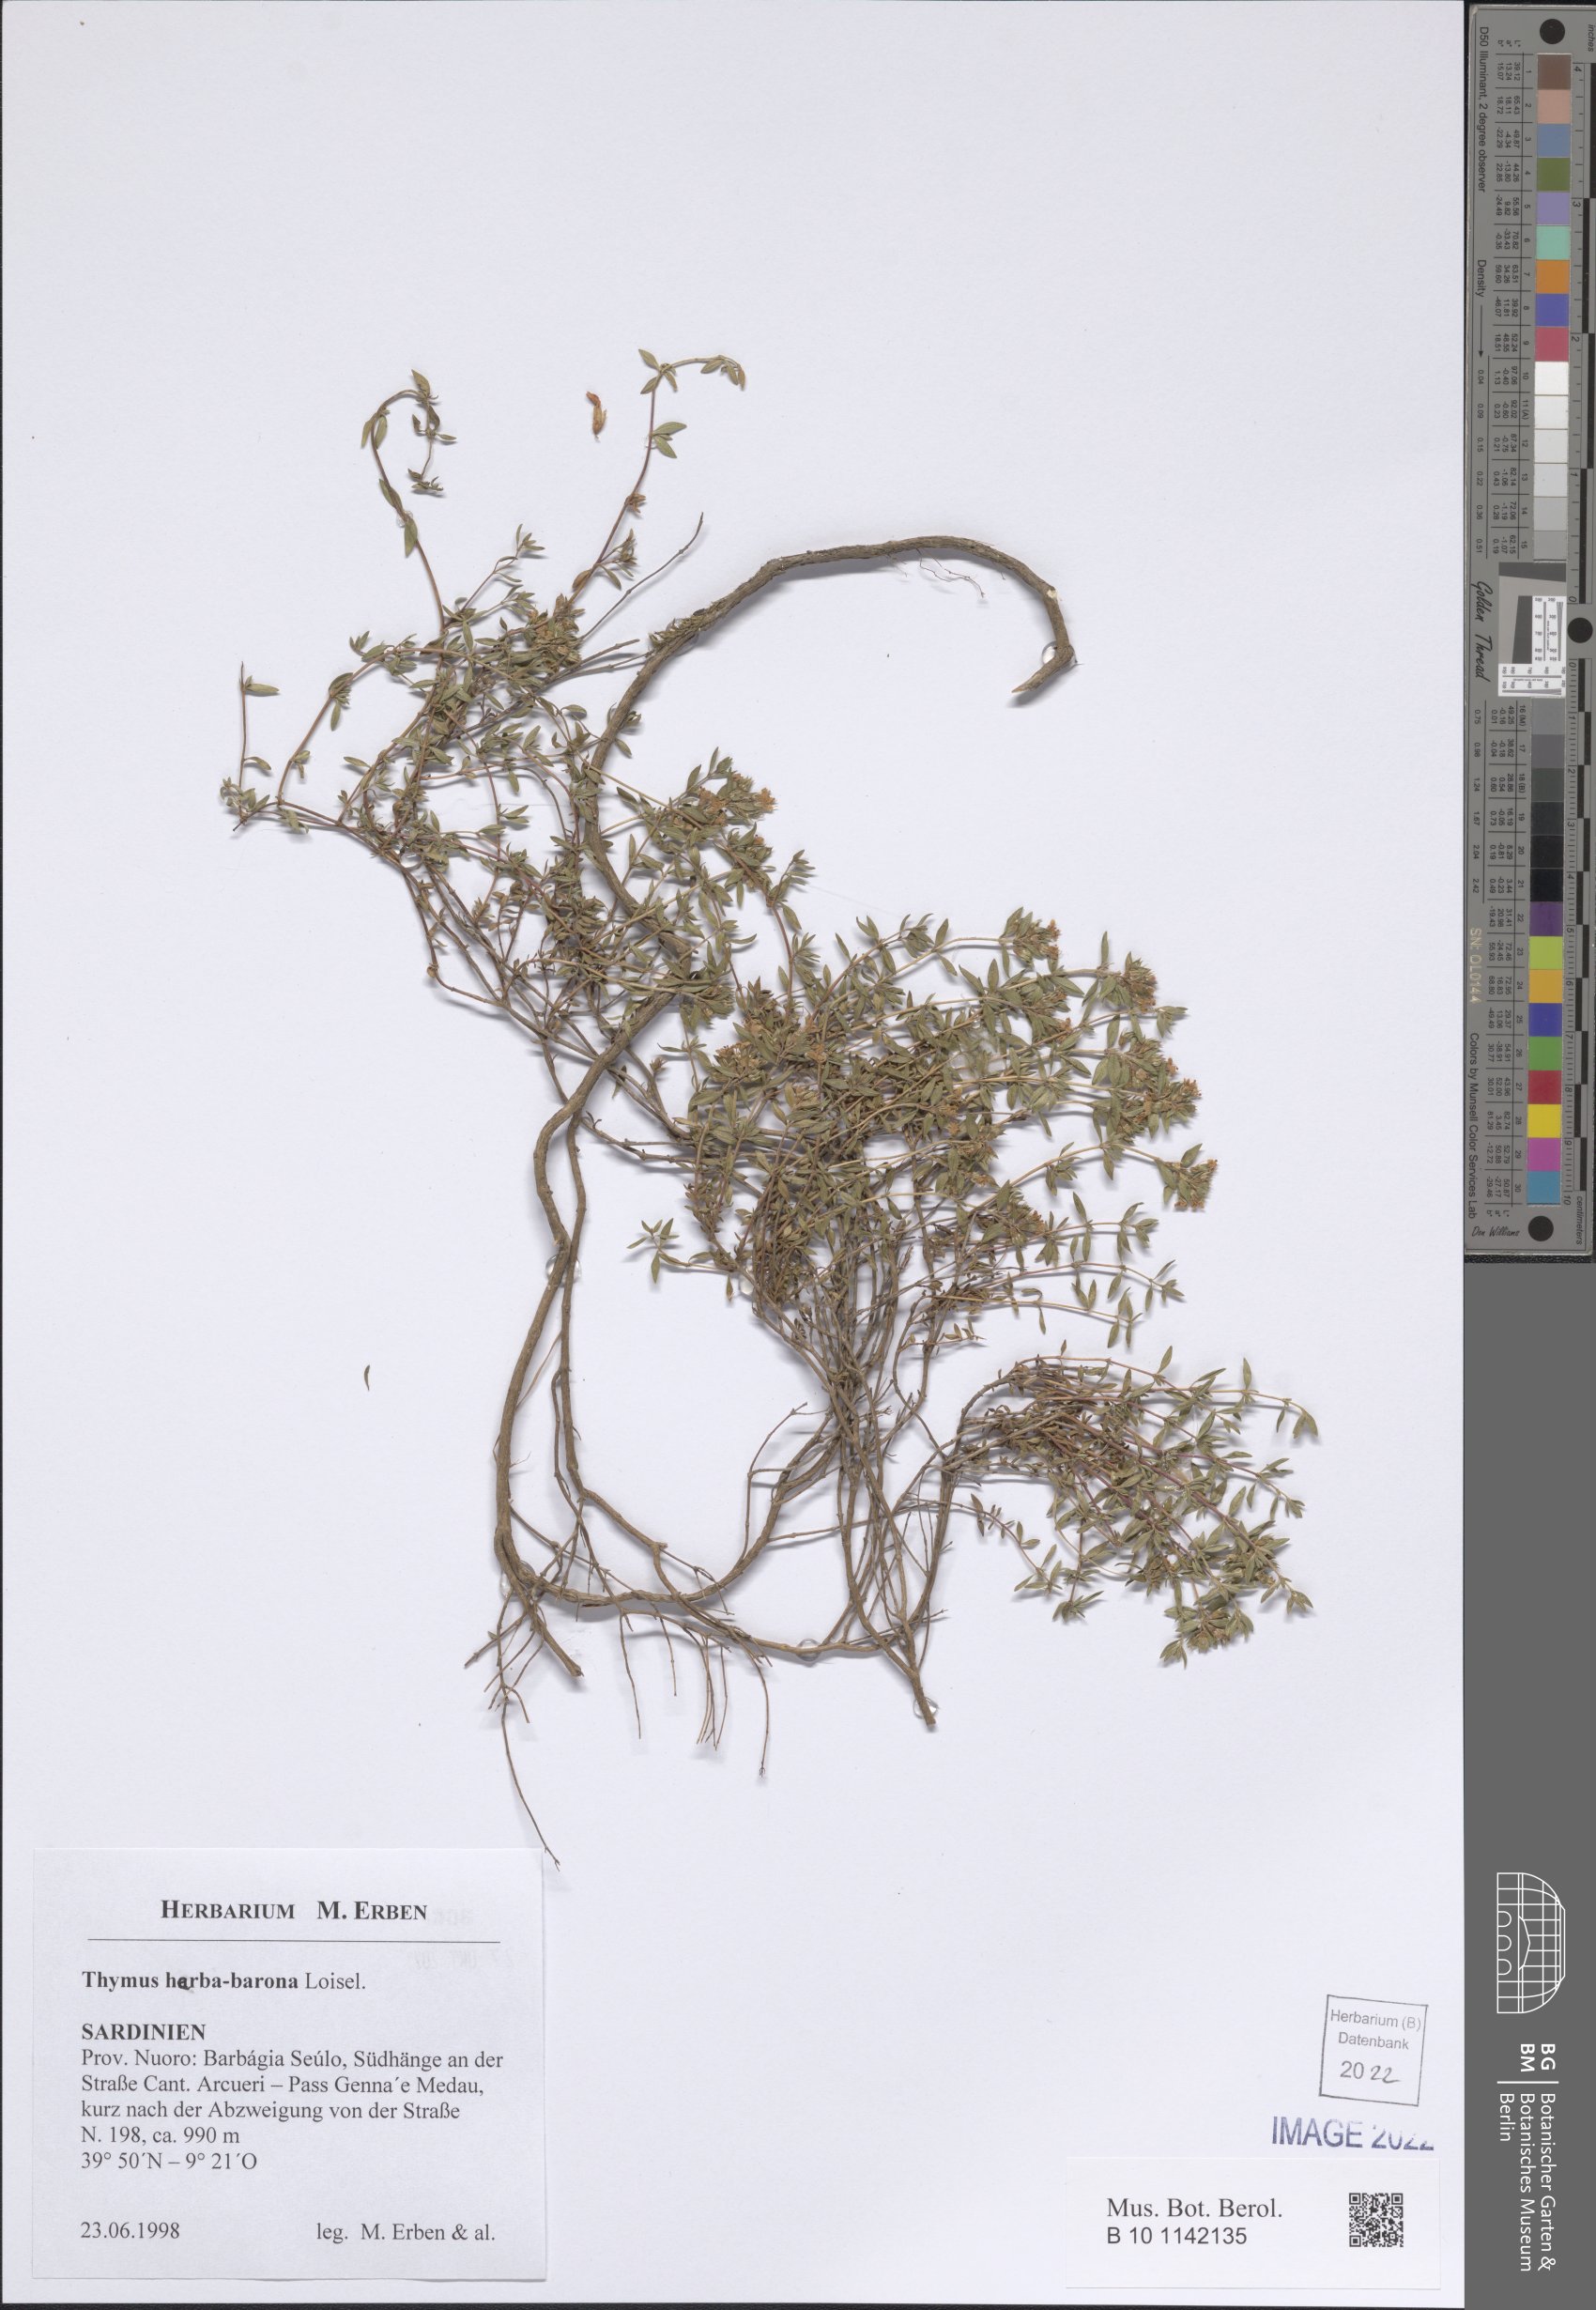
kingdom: Plantae
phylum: Tracheophyta
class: Magnoliopsida
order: Lamiales
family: Lamiaceae
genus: Thymus
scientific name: Thymus herba-barona
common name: Caraway thyme
